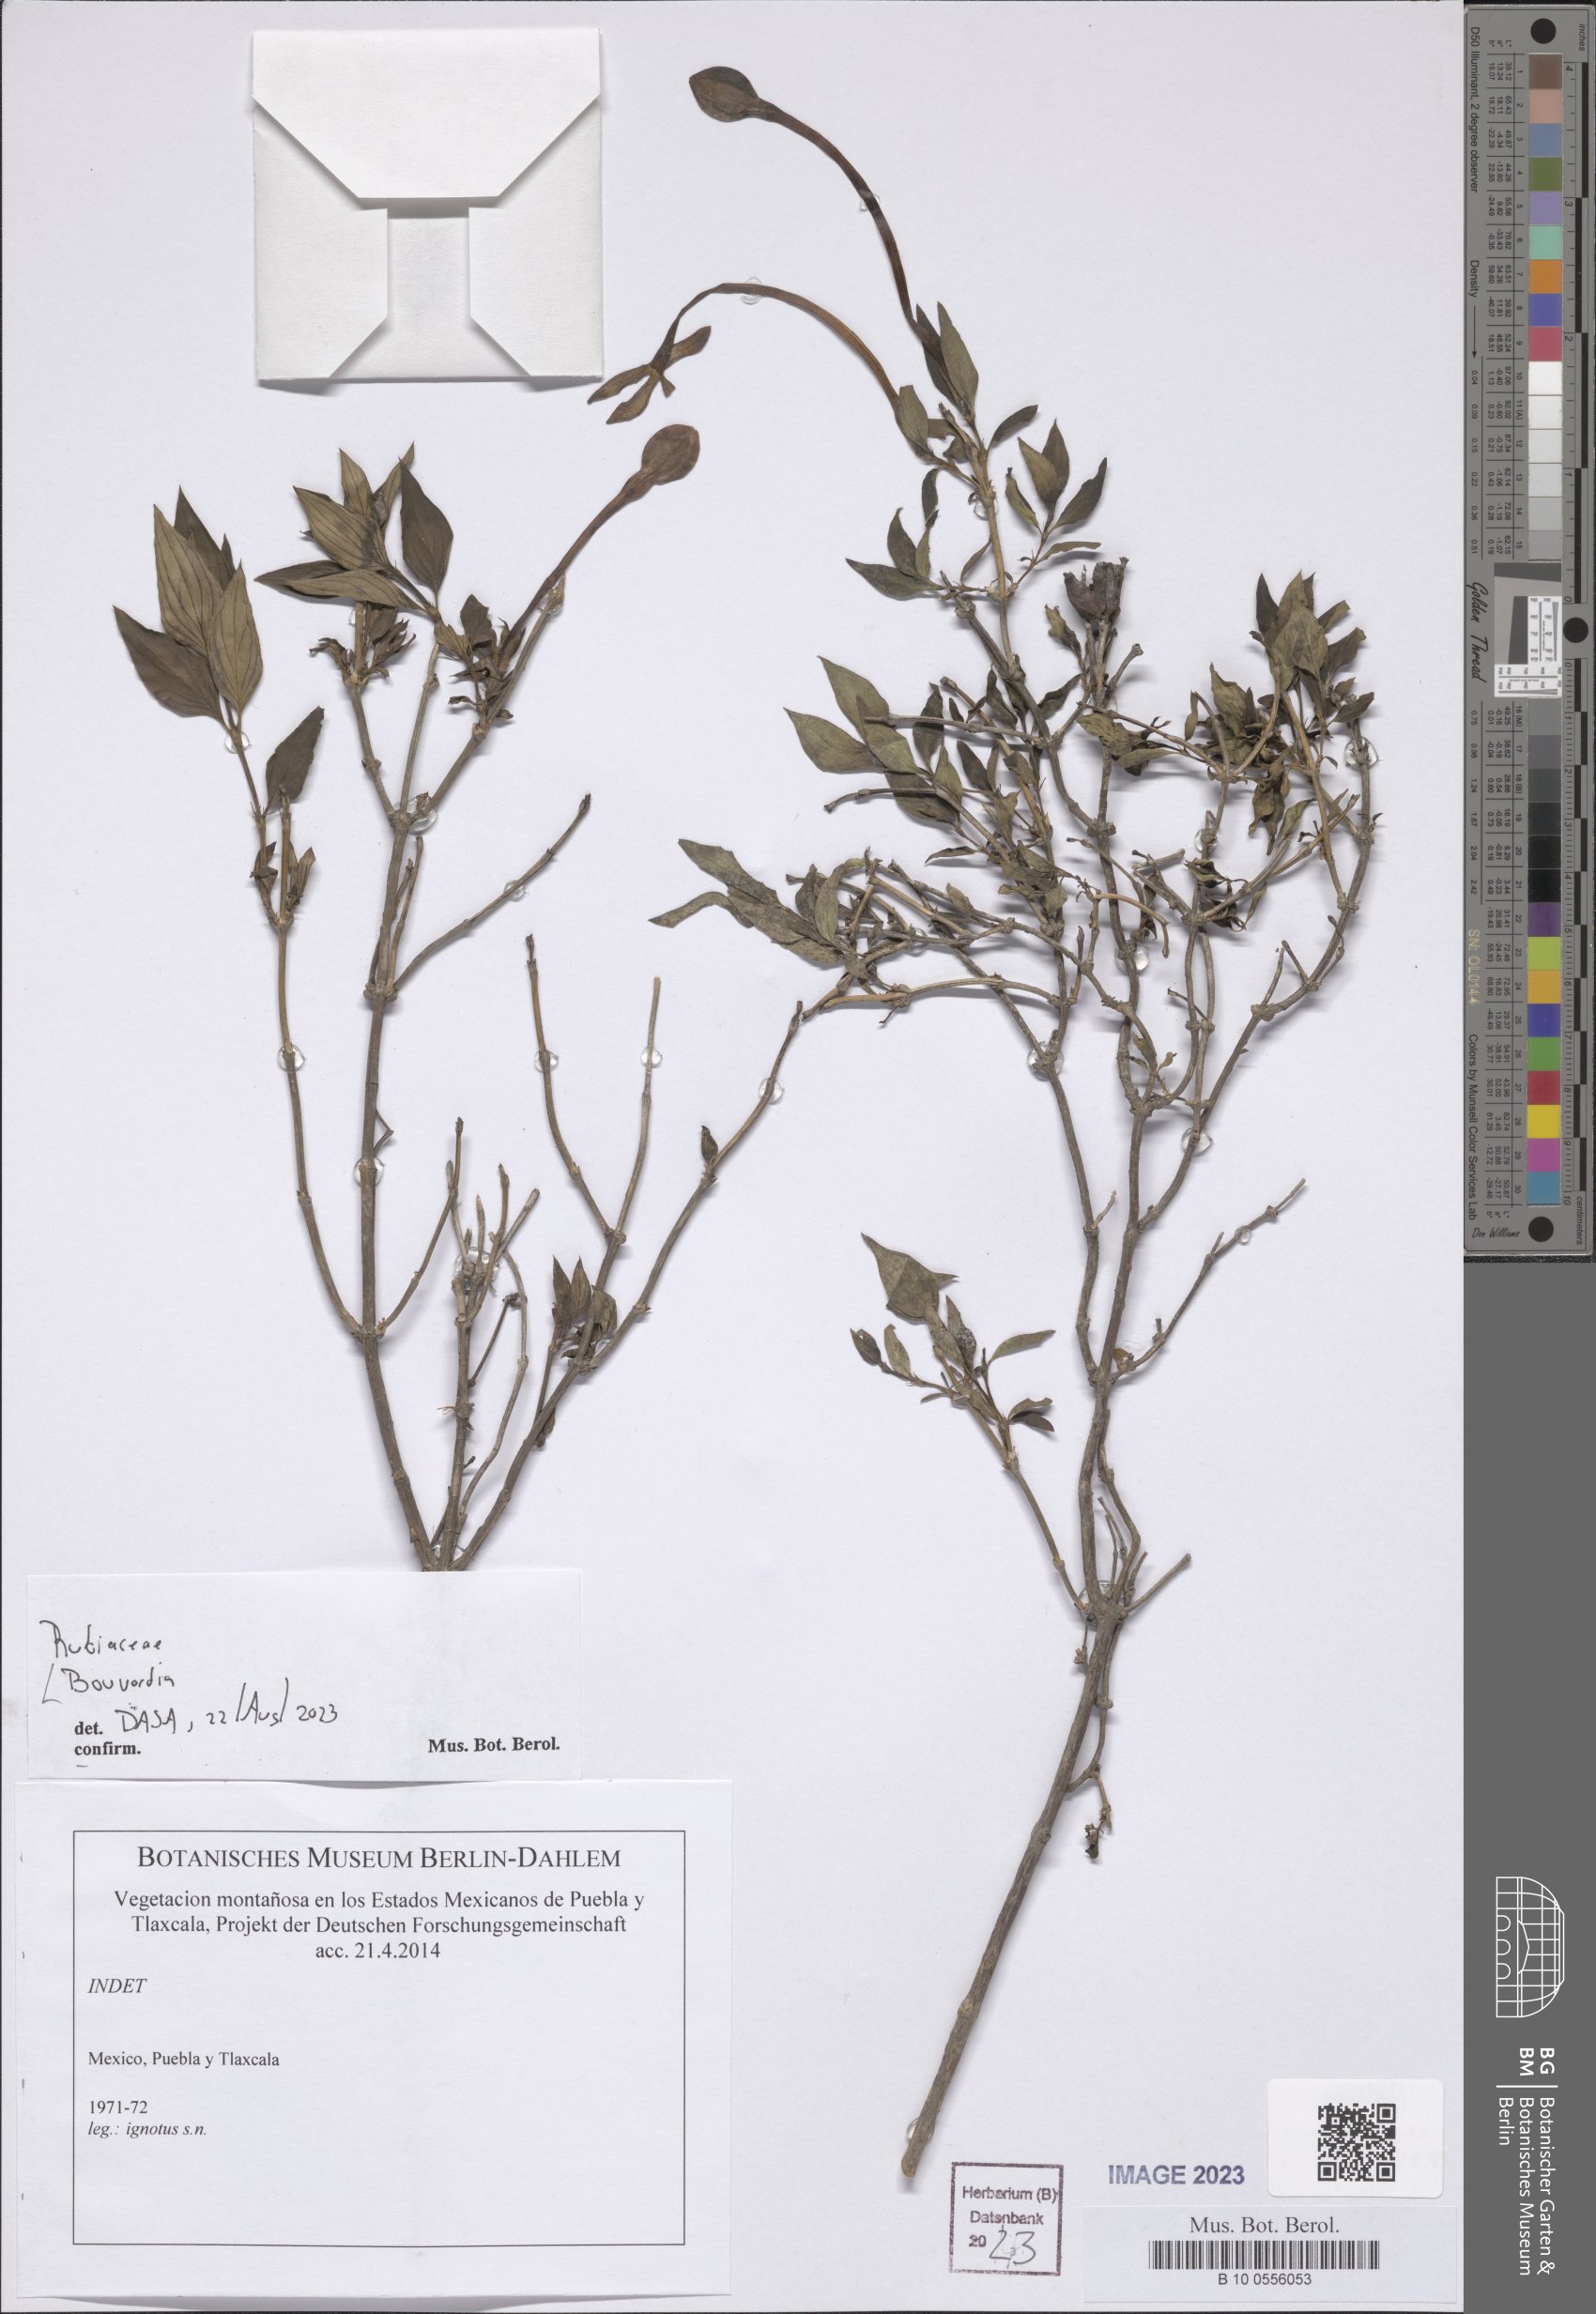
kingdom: Plantae
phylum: Tracheophyta
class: Magnoliopsida
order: Gentianales
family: Rubiaceae
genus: Bouvardia
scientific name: Bouvardia
